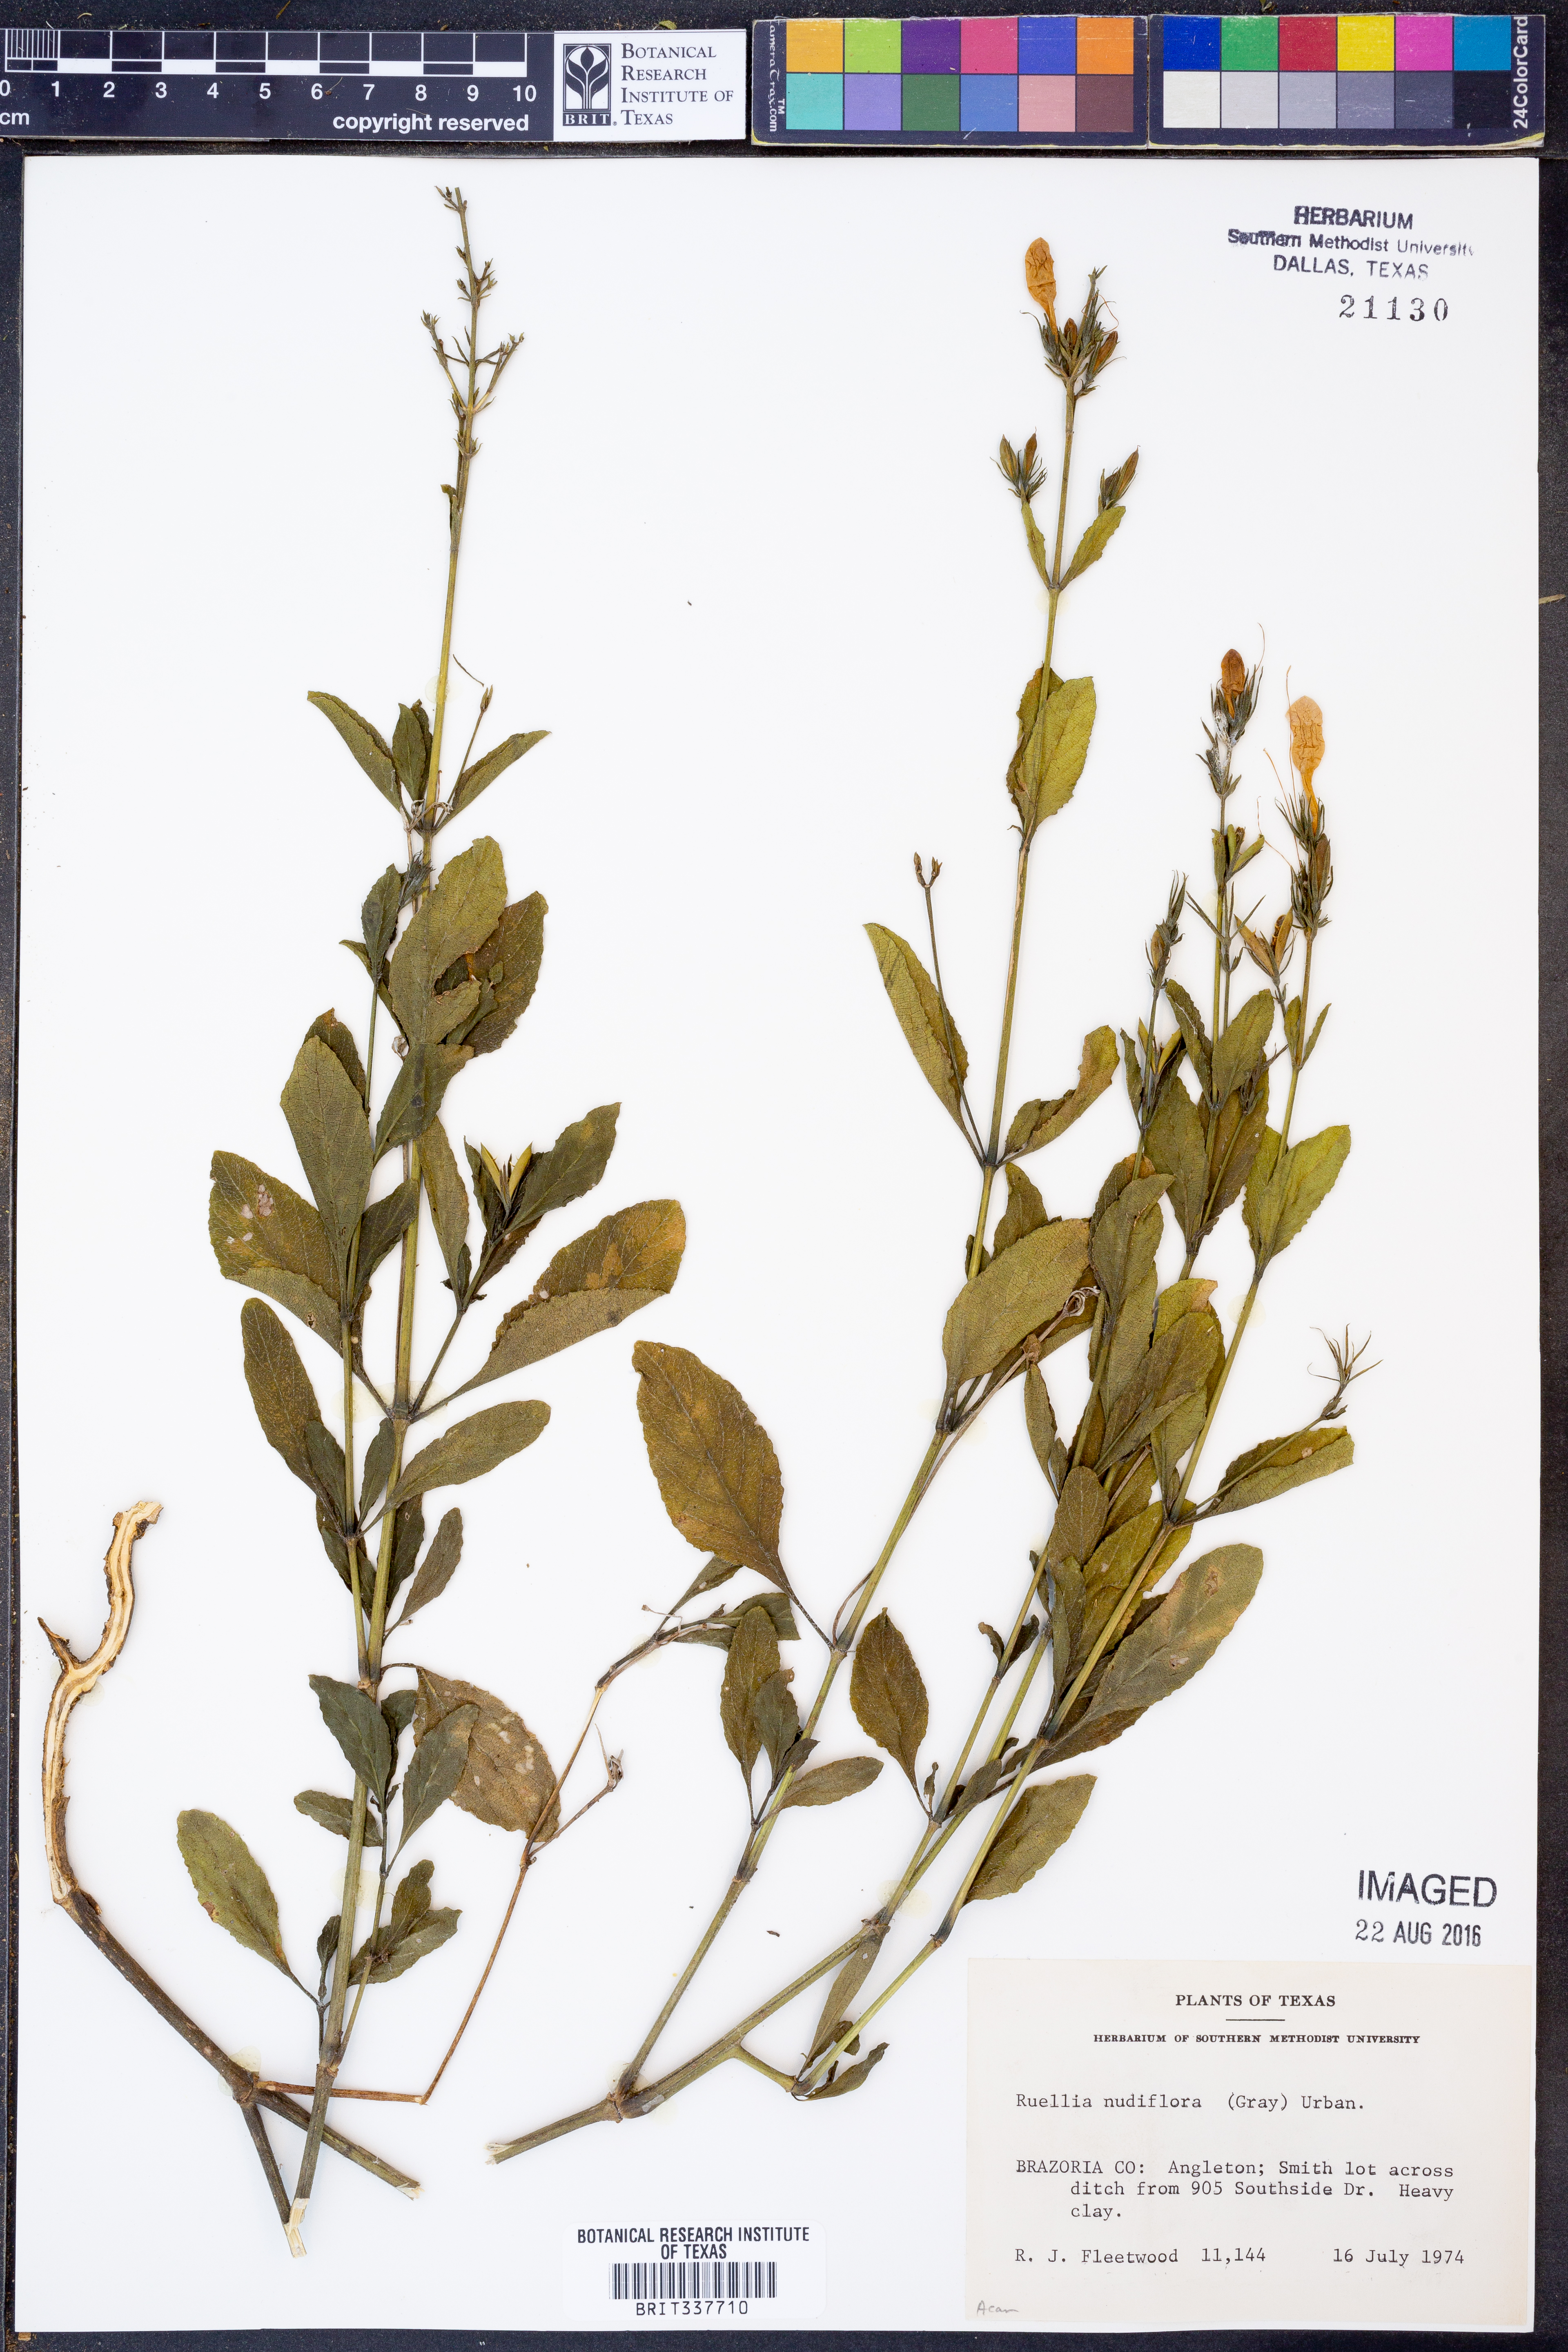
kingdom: Plantae
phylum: Tracheophyta
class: Magnoliopsida
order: Lamiales
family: Acanthaceae
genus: Ruellia
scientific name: Ruellia ciliatiflora
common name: Hairyflower wild petunia
